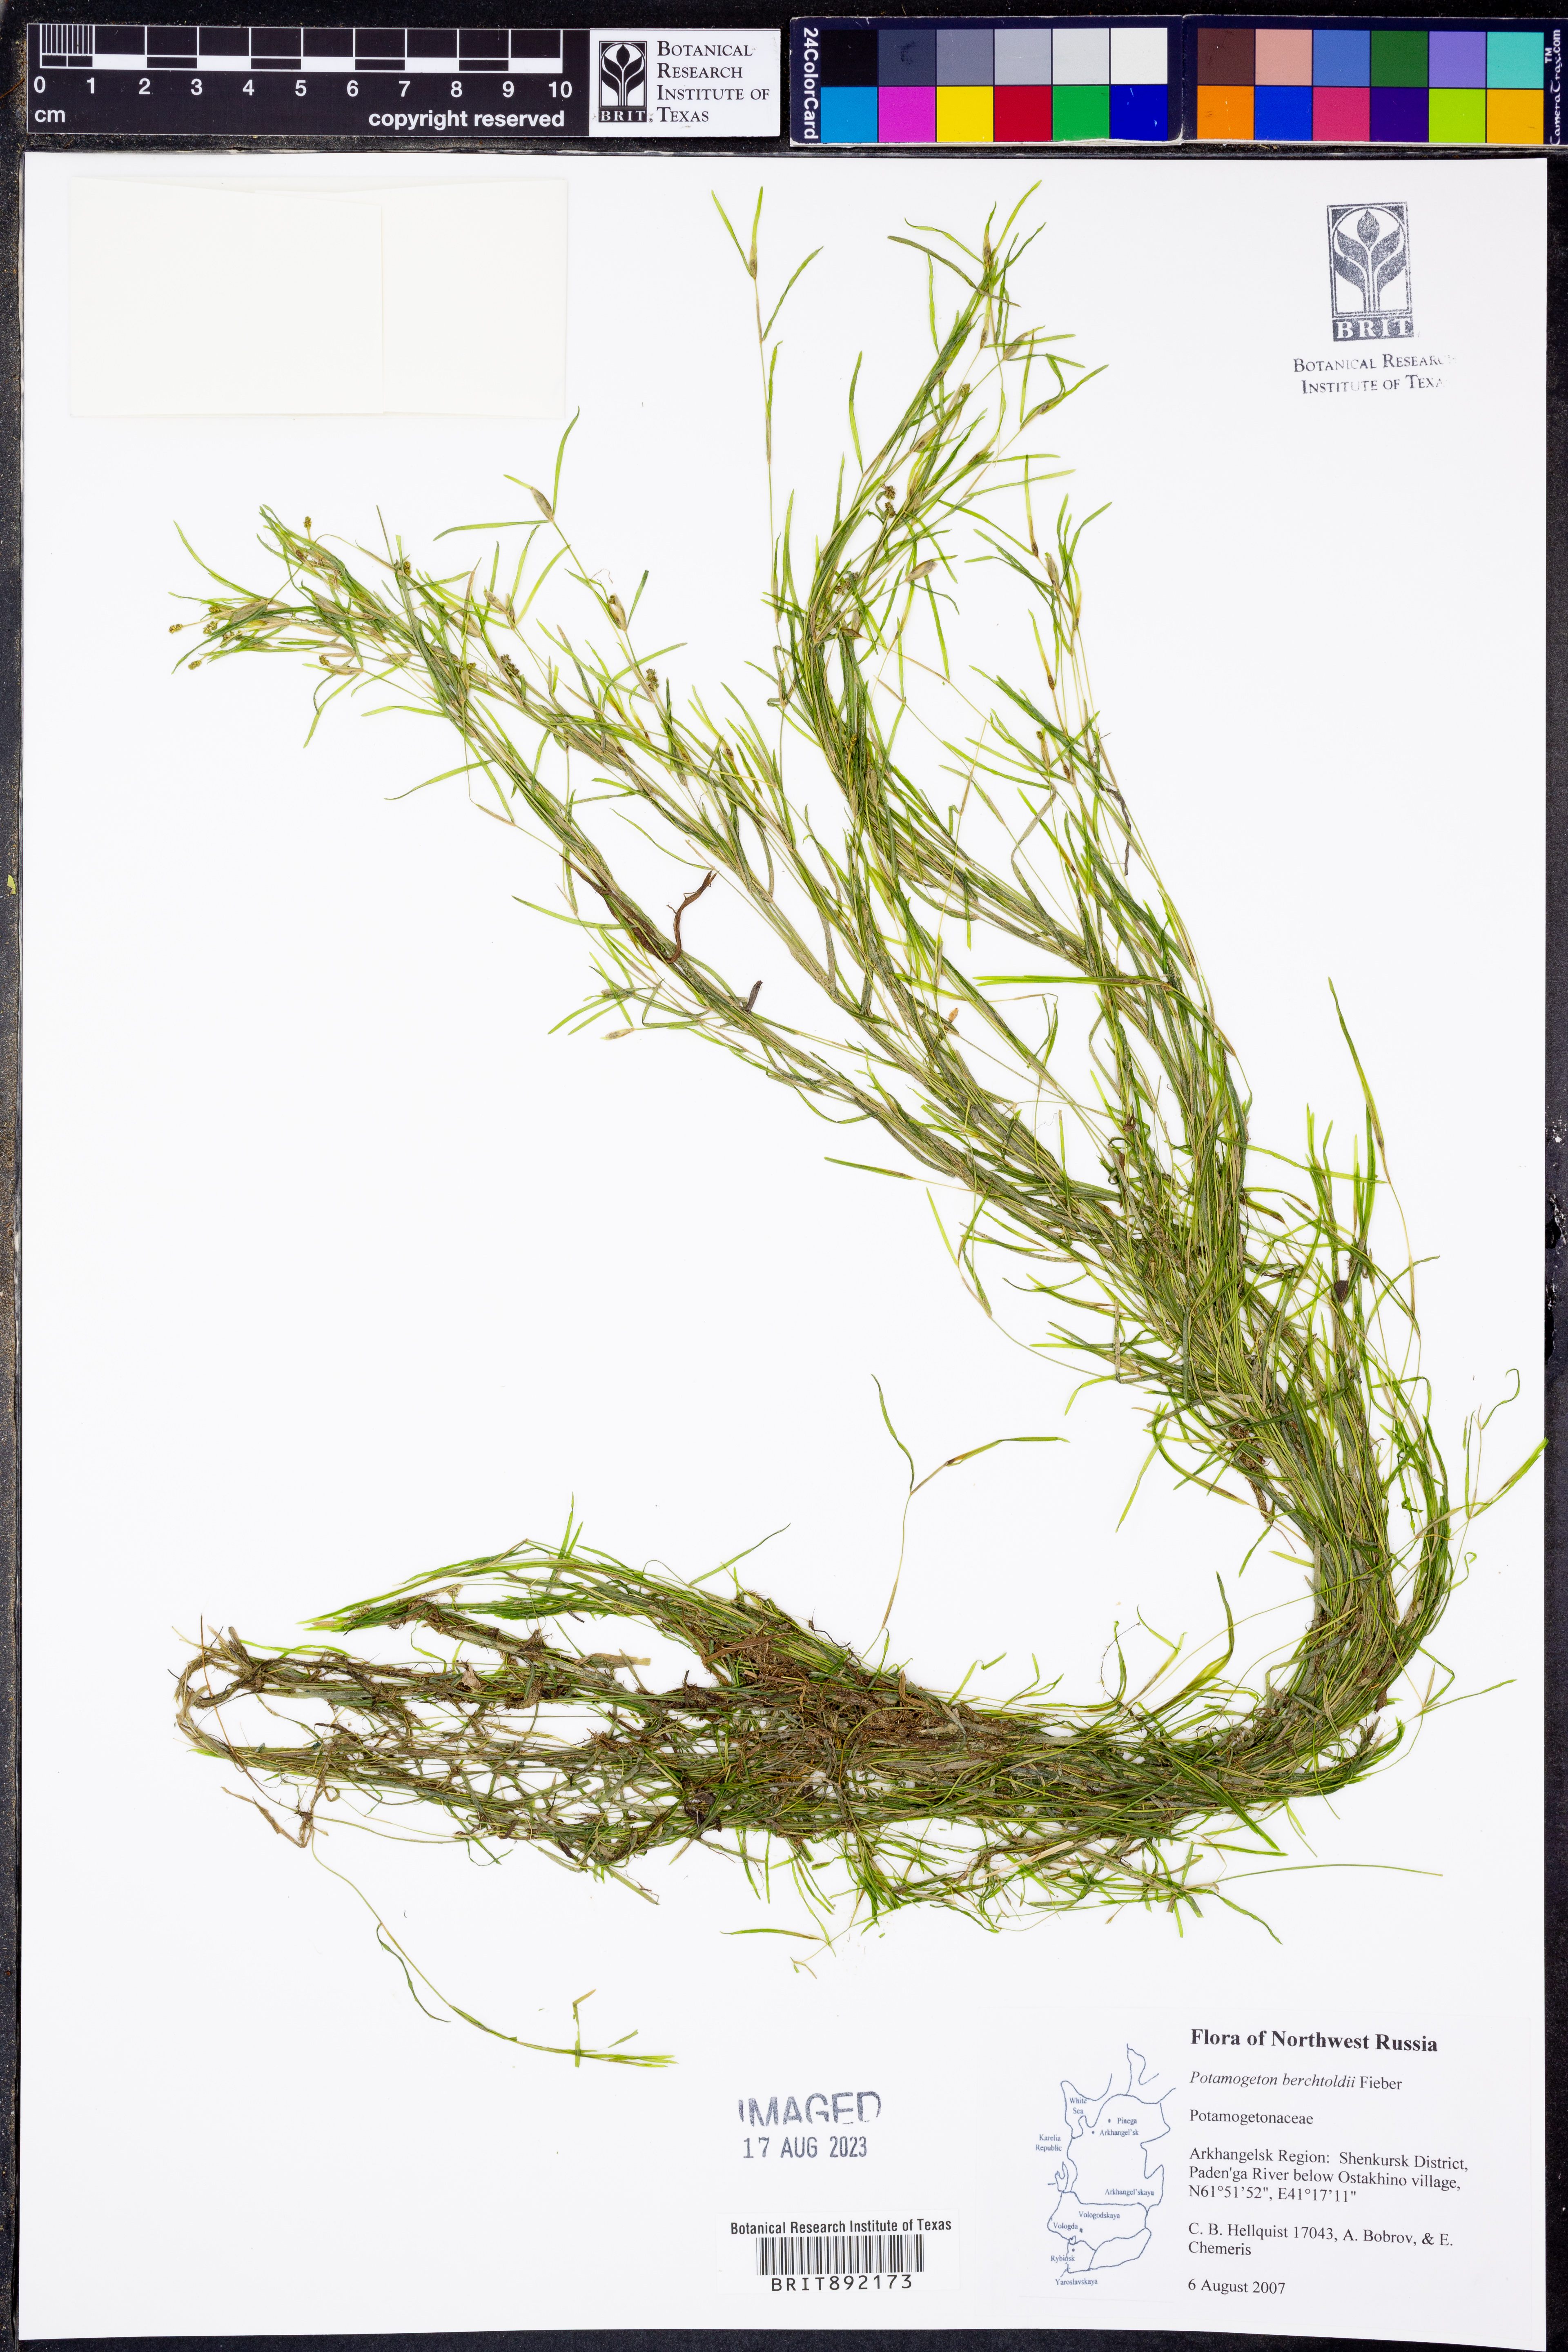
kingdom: Plantae
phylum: Tracheophyta
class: Liliopsida
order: Alismatales
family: Potamogetonaceae
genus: Potamogeton
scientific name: Potamogeton berchtoldii
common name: Small pondweed
